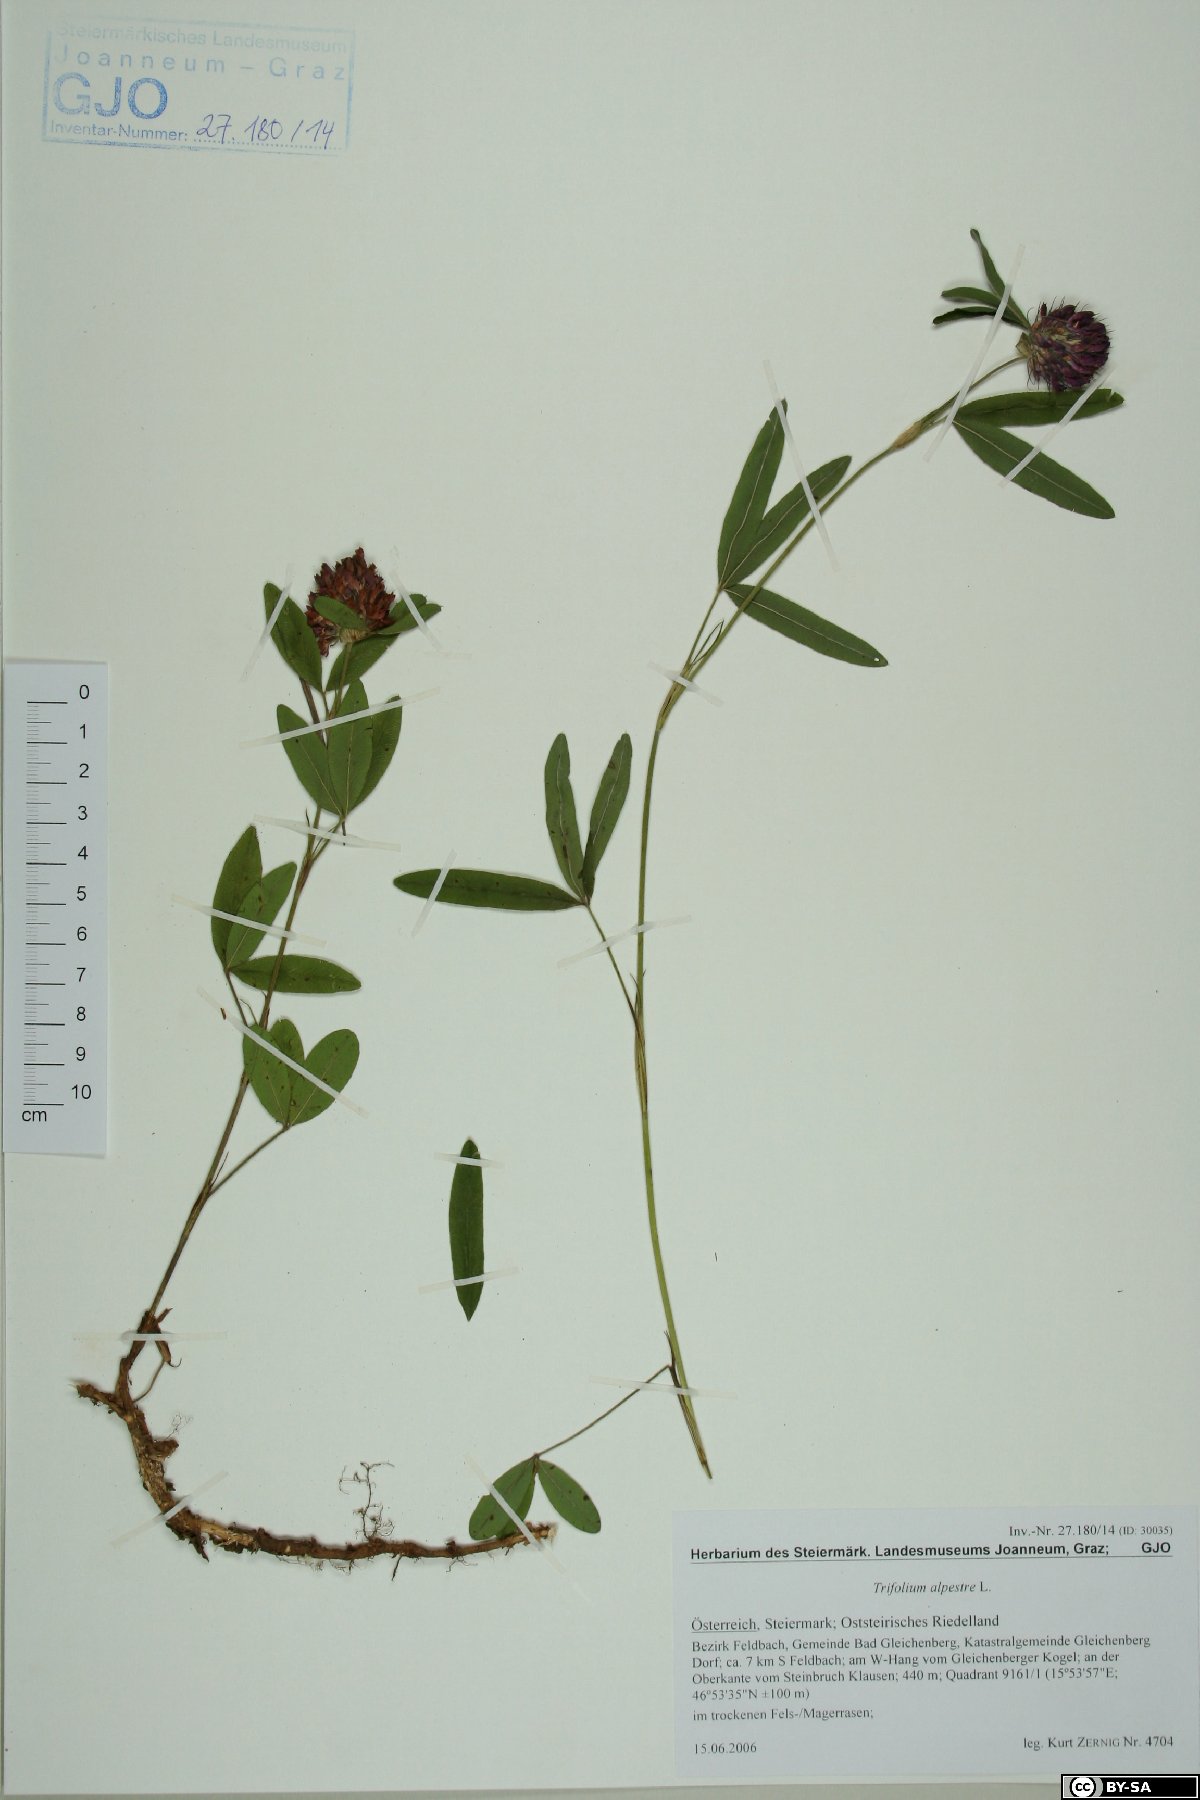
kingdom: Plantae
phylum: Tracheophyta
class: Magnoliopsida
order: Fabales
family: Fabaceae
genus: Trifolium
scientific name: Trifolium alpestre
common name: Owl-head clover
